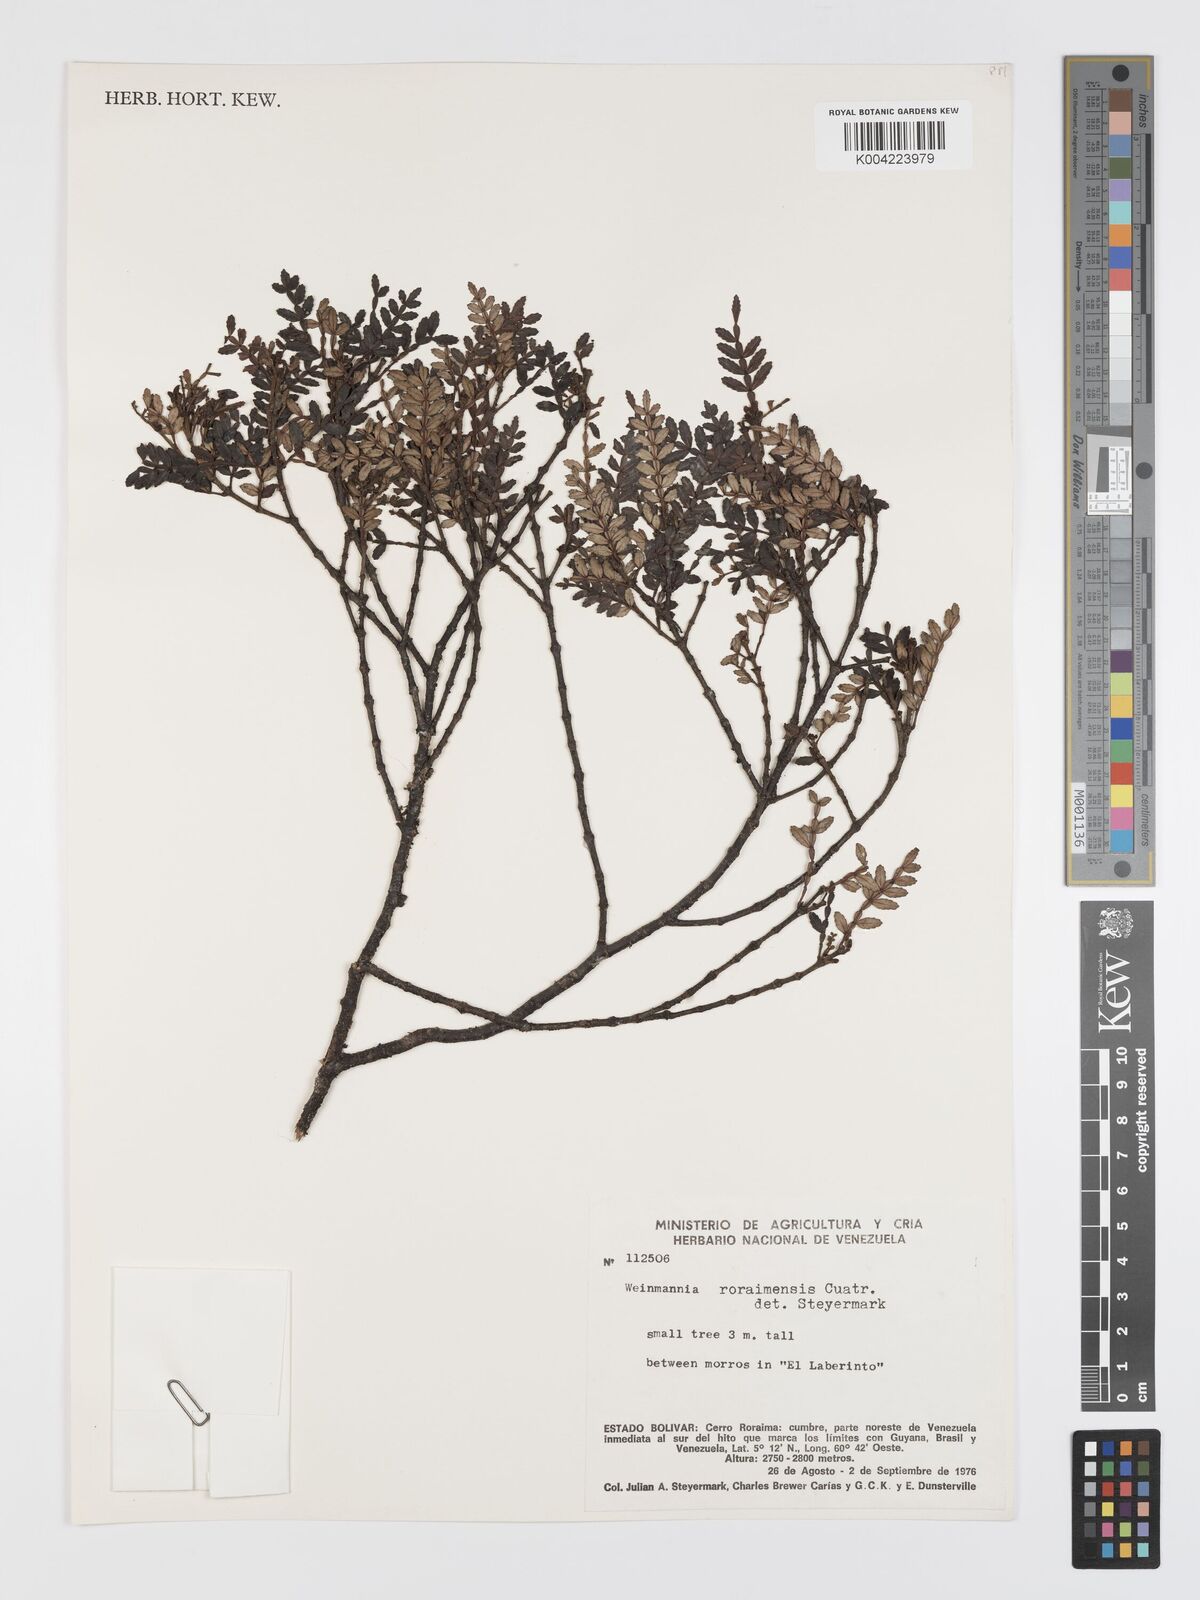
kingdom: Plantae
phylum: Tracheophyta
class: Magnoliopsida
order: Oxalidales
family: Cunoniaceae
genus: Weinmannia
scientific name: Weinmannia fagaroides
